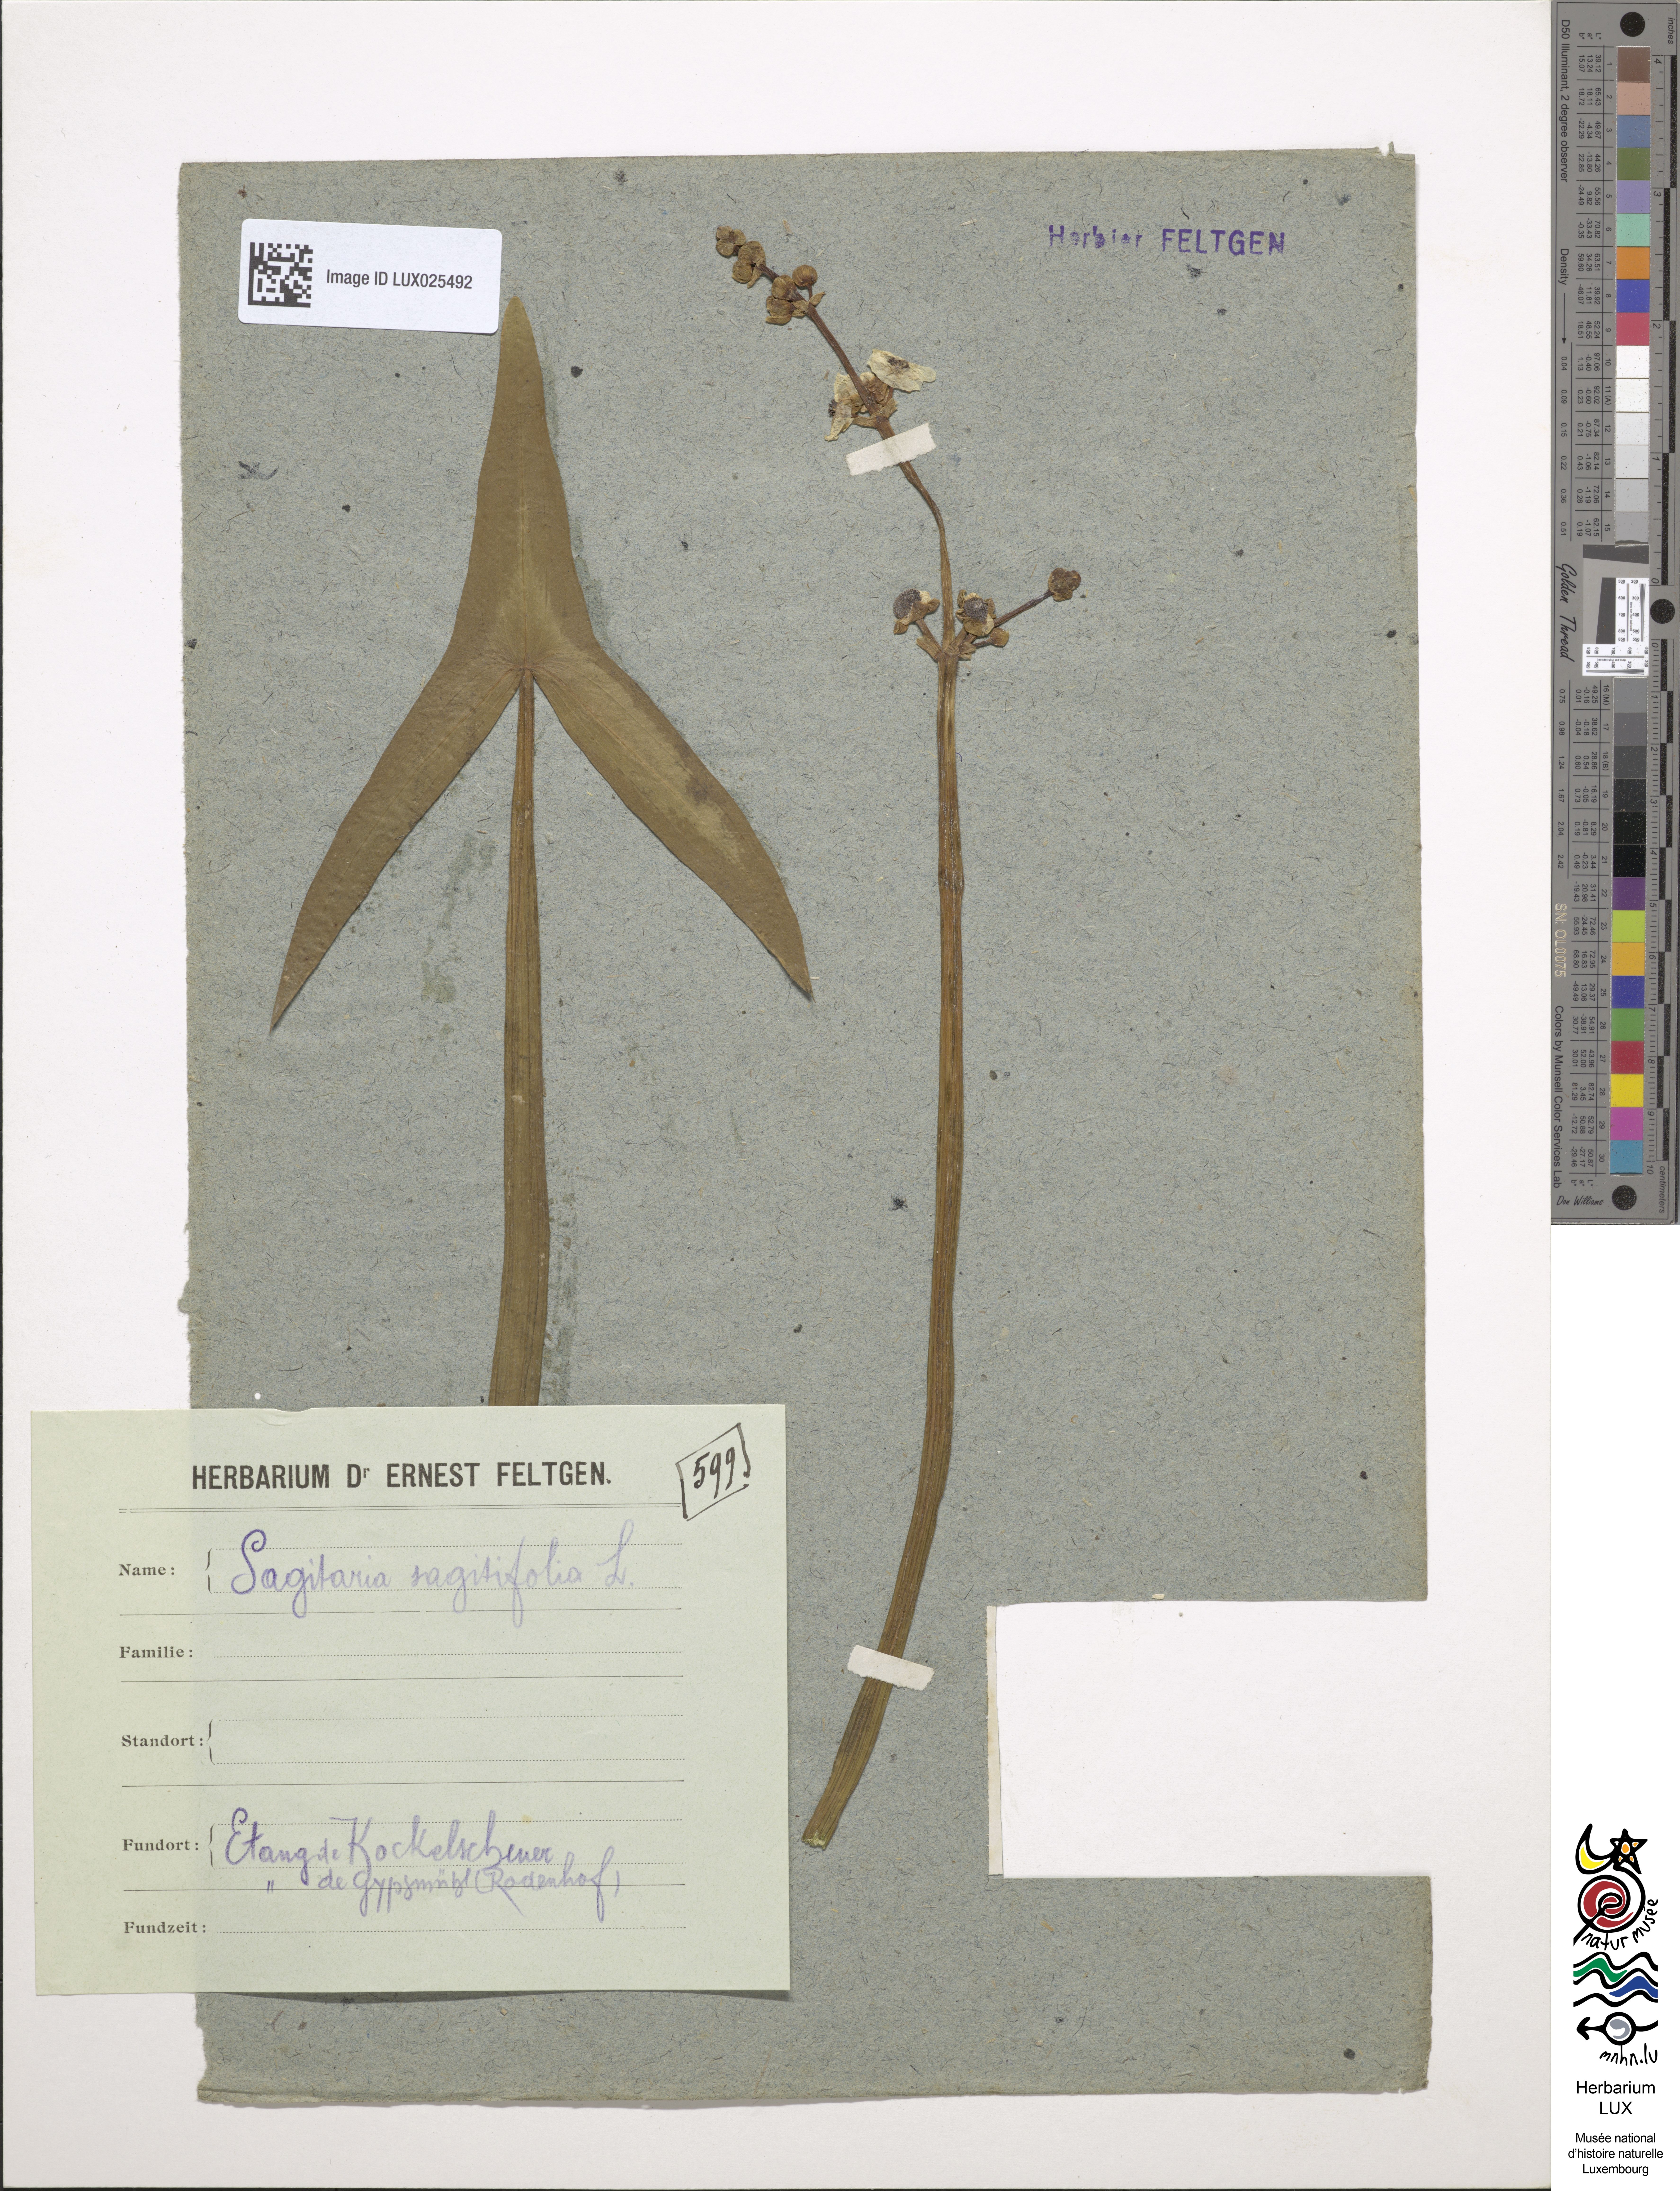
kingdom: Plantae
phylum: Tracheophyta
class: Liliopsida
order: Alismatales
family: Alismataceae
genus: Sagittaria
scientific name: Sagittaria sagittifolia
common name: Arrowhead
